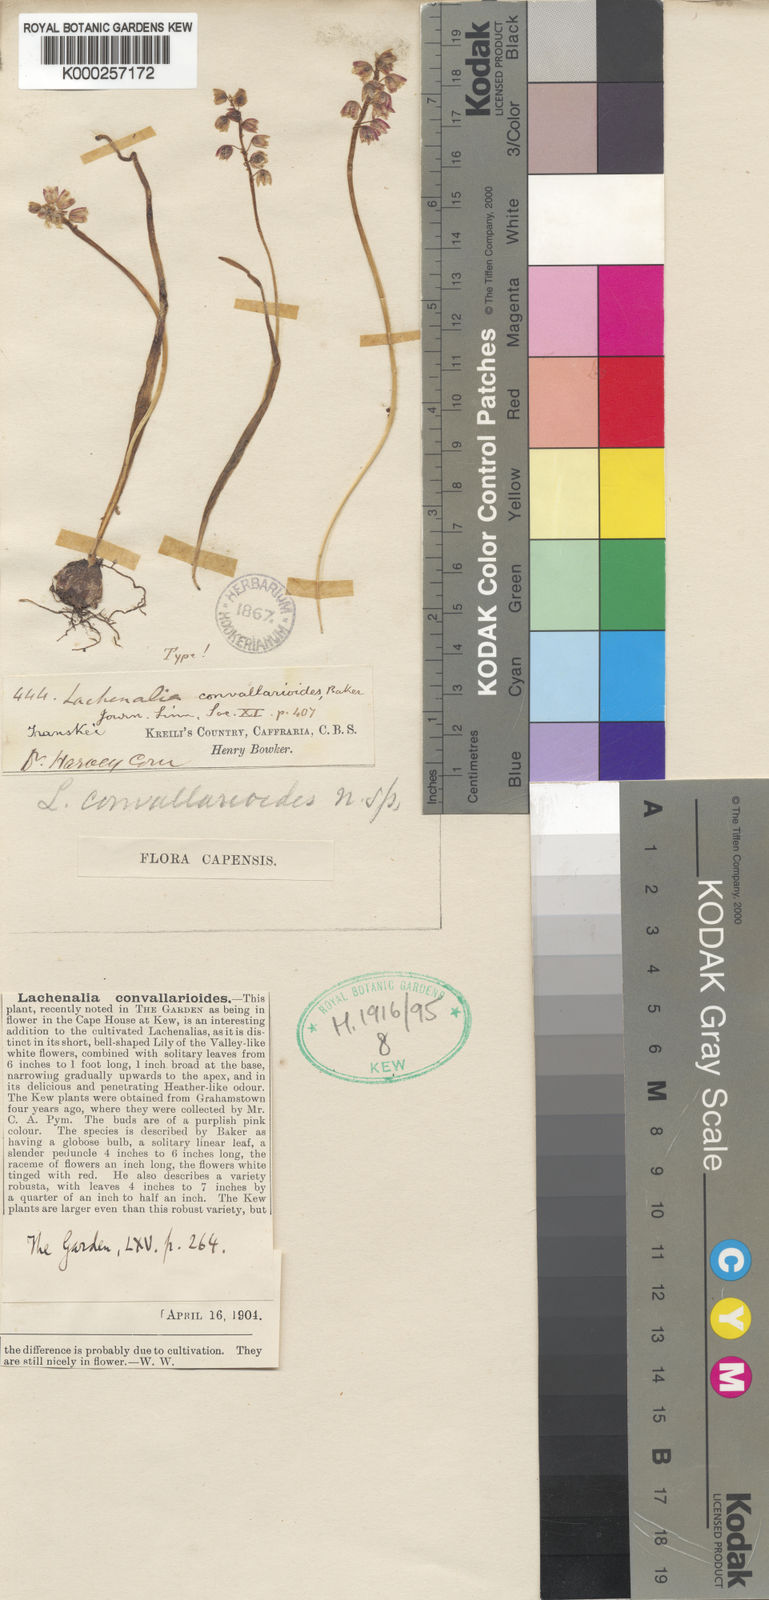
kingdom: Plantae
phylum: Tracheophyta
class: Liliopsida
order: Asparagales
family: Asparagaceae
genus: Lachenalia
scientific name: Lachenalia convallarioides
